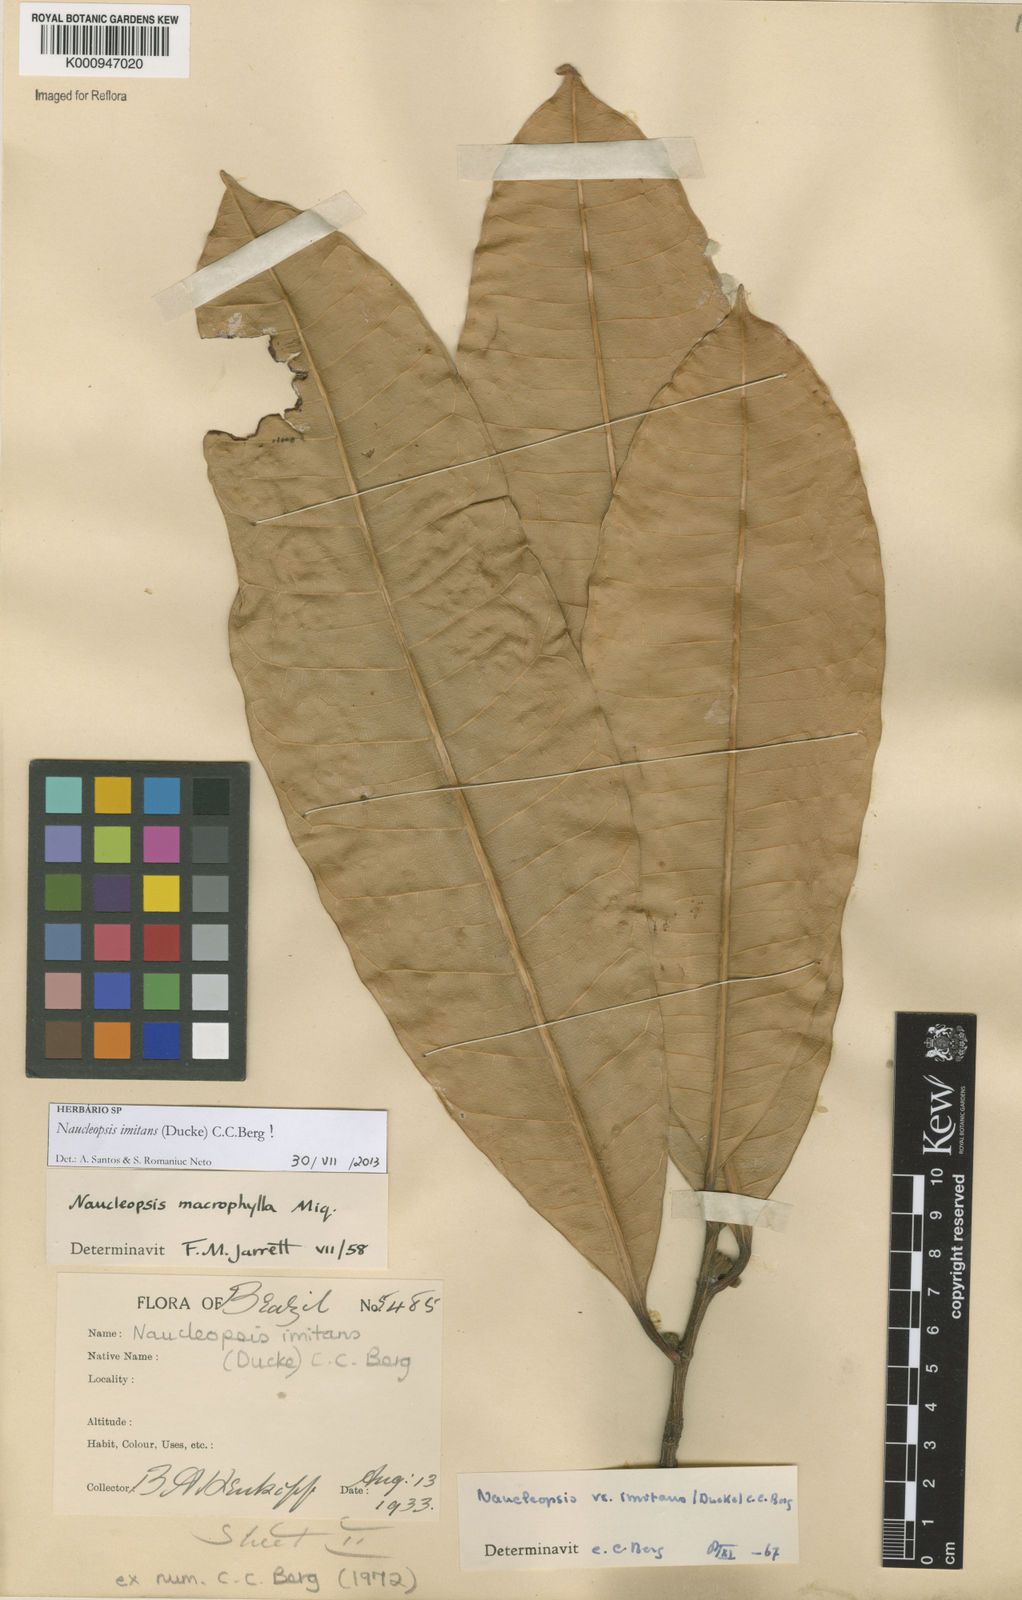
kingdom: Plantae
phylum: Tracheophyta
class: Magnoliopsida
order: Rosales
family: Moraceae
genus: Naucleopsis
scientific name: Naucleopsis imitans
